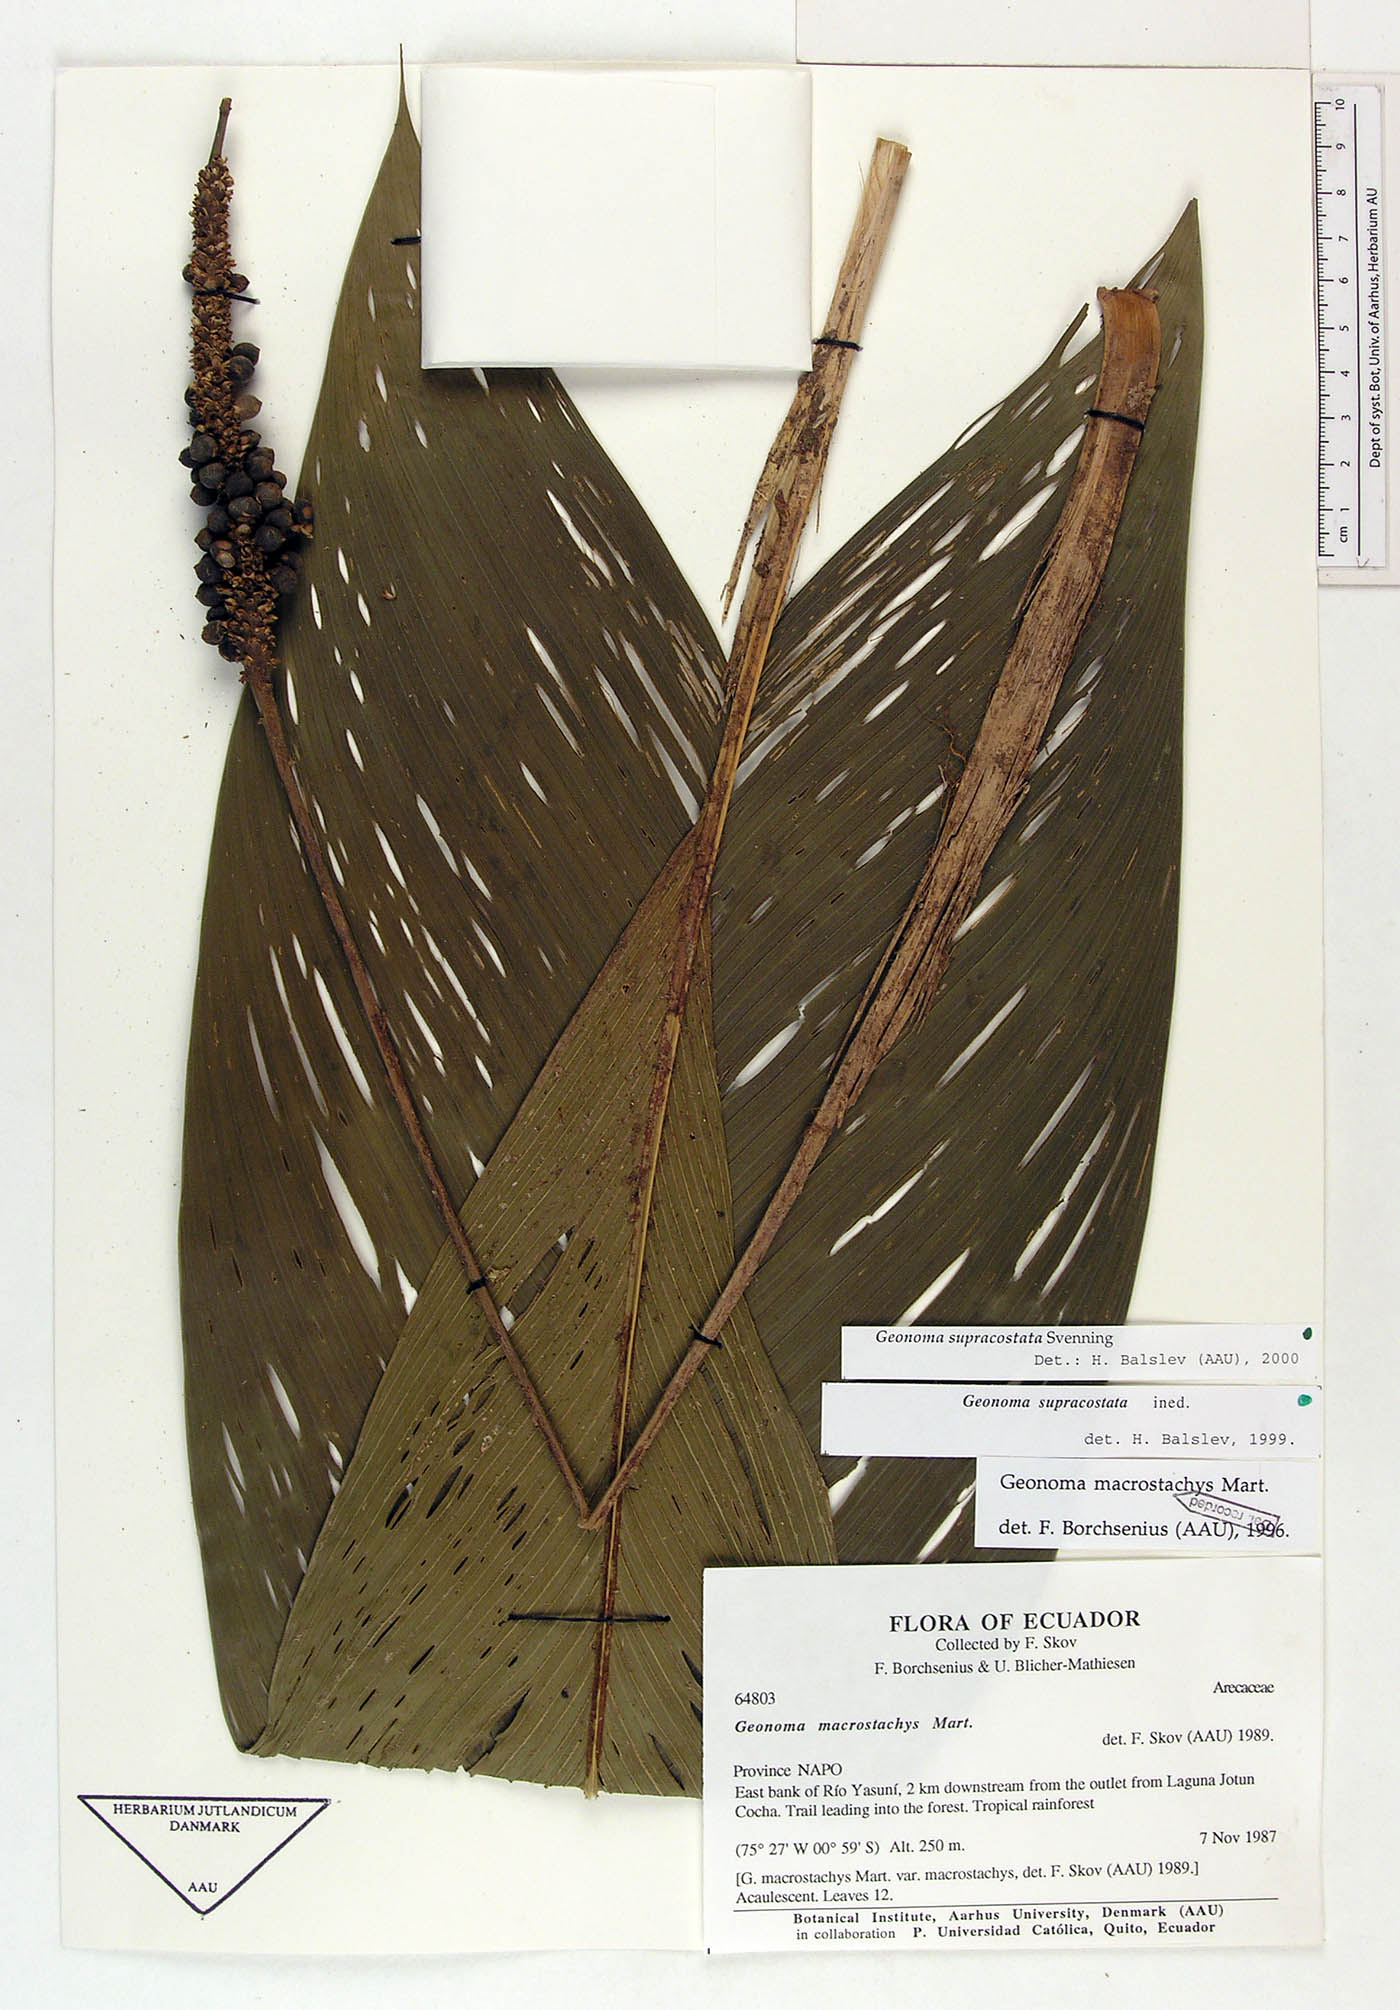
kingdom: Plantae
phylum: Tracheophyta
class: Liliopsida
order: Arecales
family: Arecaceae
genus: Geonoma
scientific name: Geonoma macrostachys
